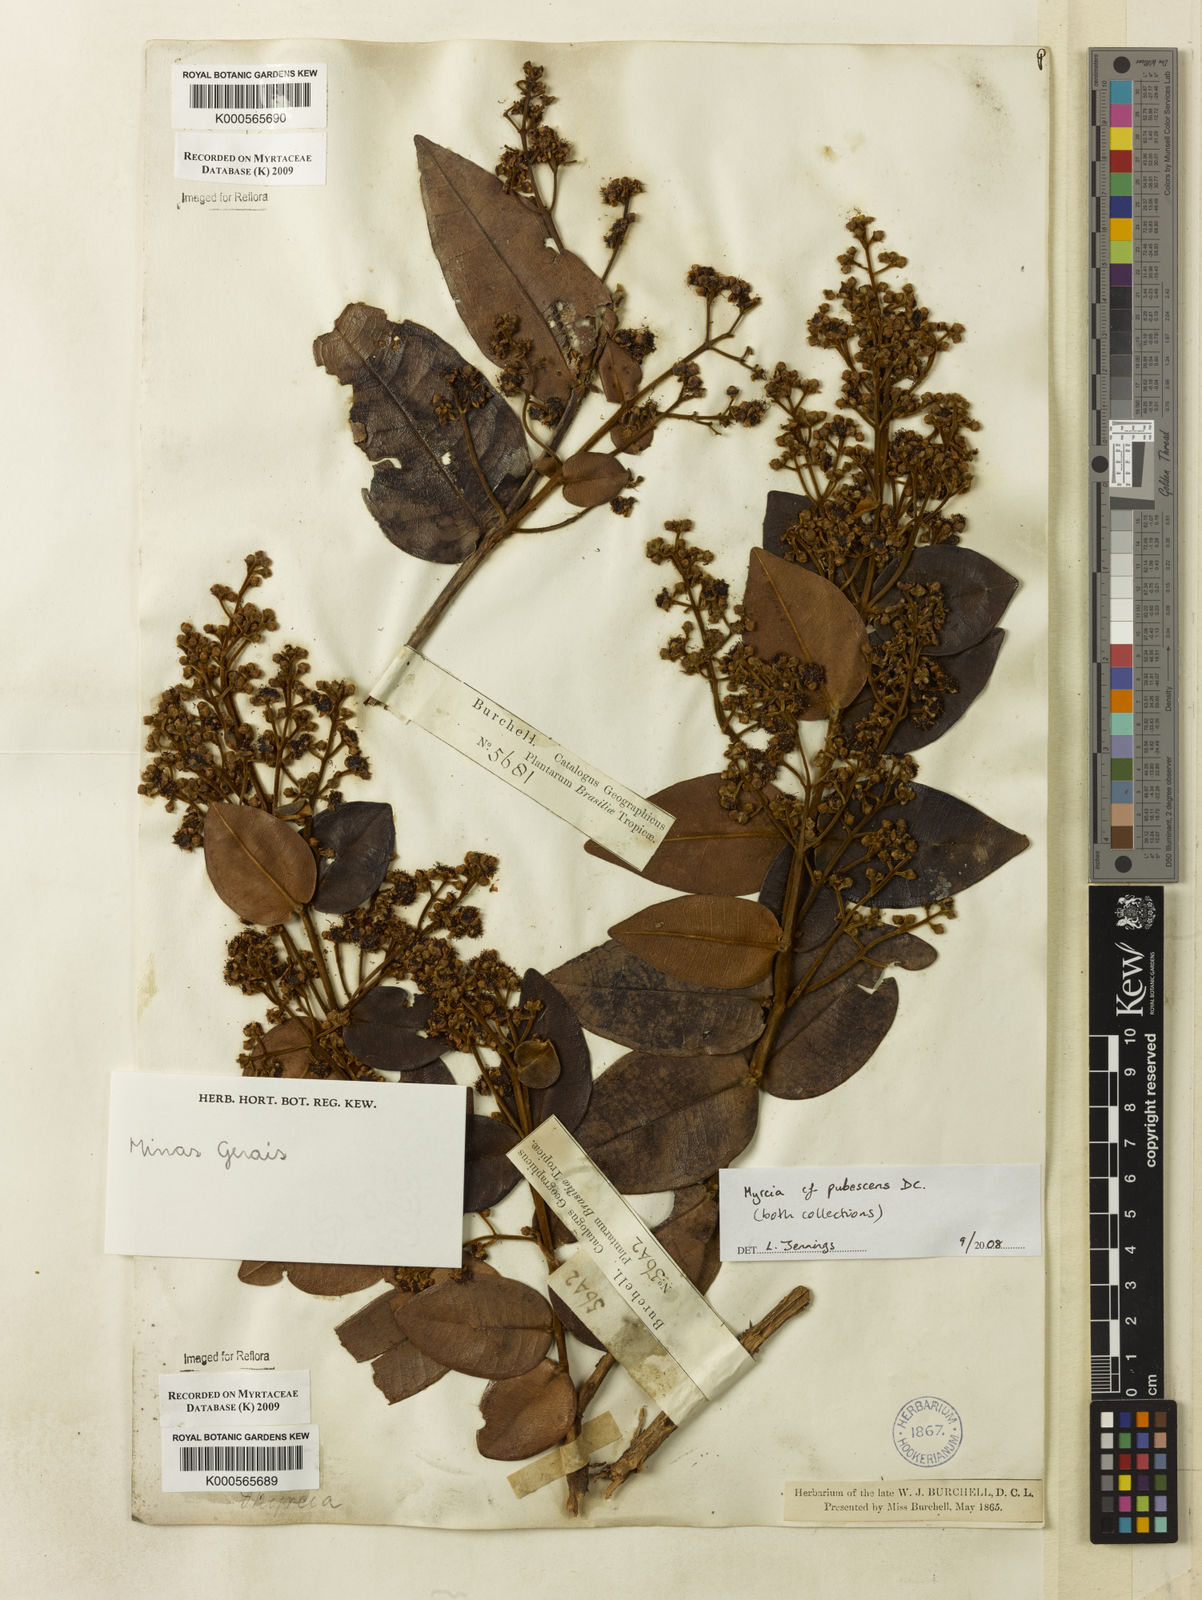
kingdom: Plantae
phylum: Tracheophyta
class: Magnoliopsida
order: Myrtales
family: Myrtaceae
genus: Myrcia
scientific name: Myrcia pubescens
